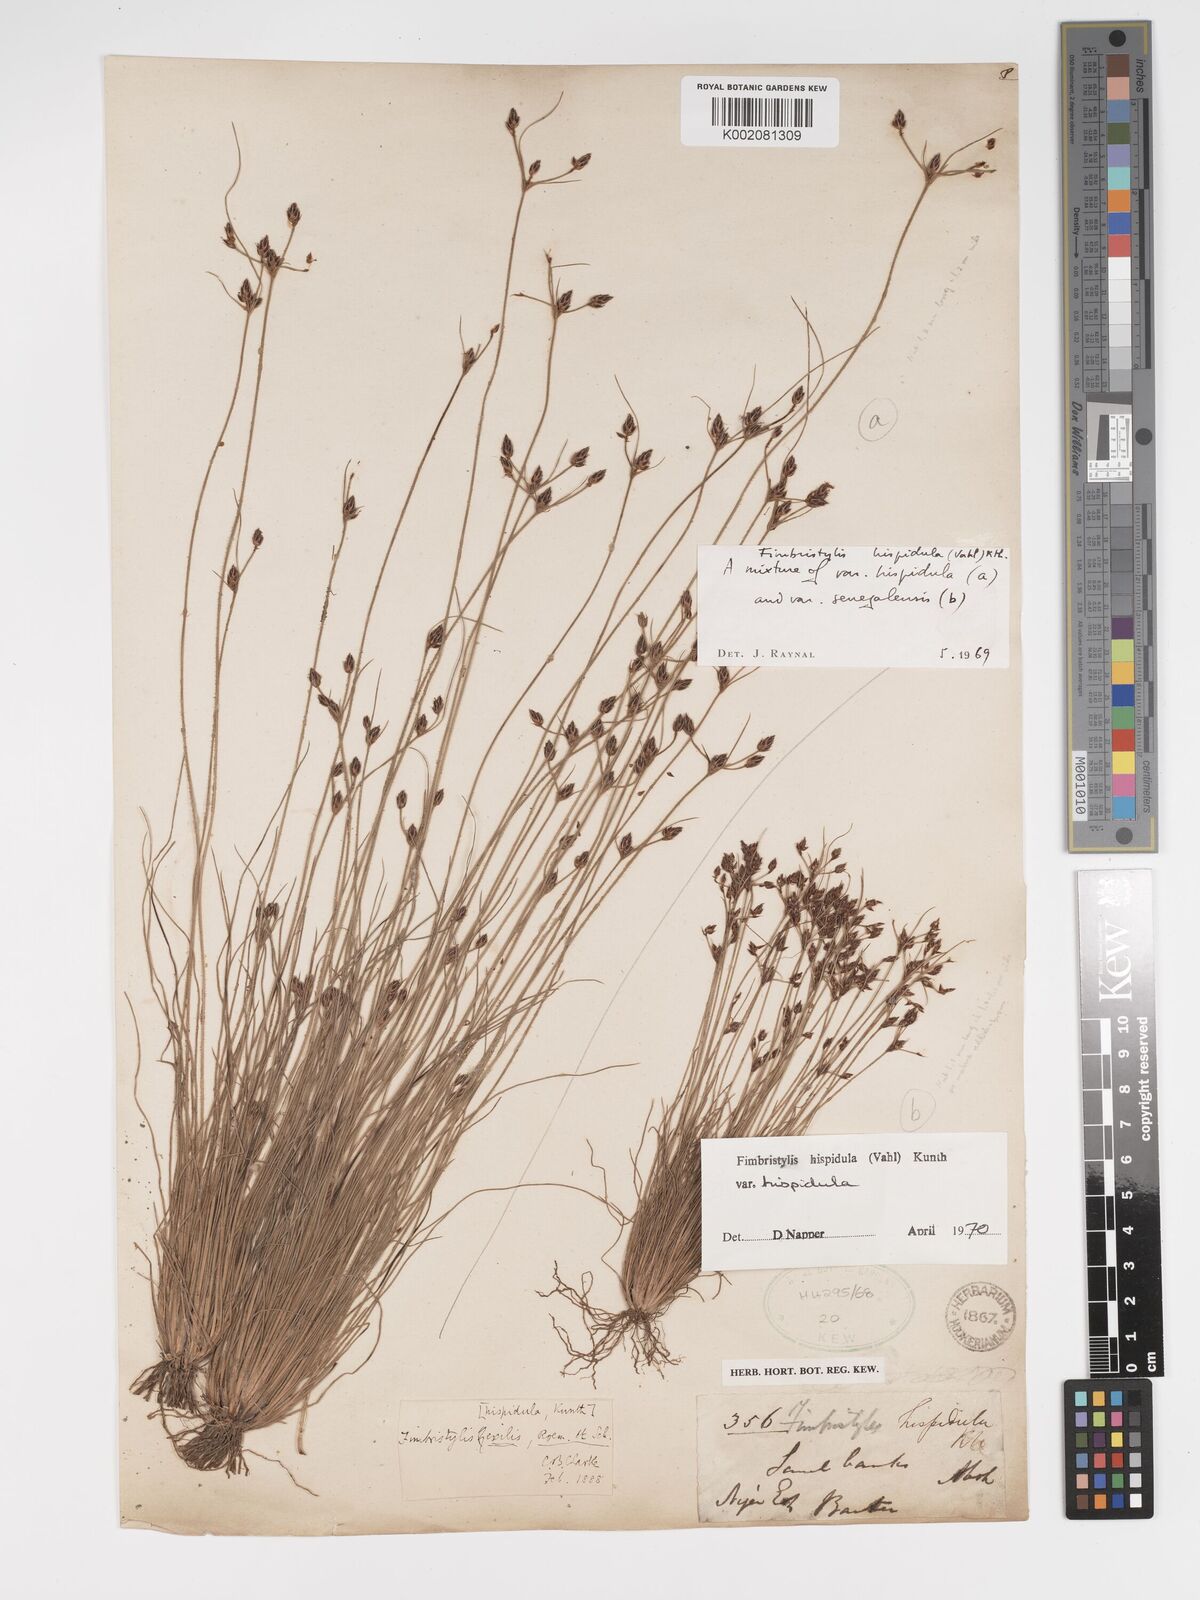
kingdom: Plantae
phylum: Tracheophyta
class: Liliopsida
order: Poales
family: Cyperaceae
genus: Bulbostylis
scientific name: Bulbostylis hispidula
